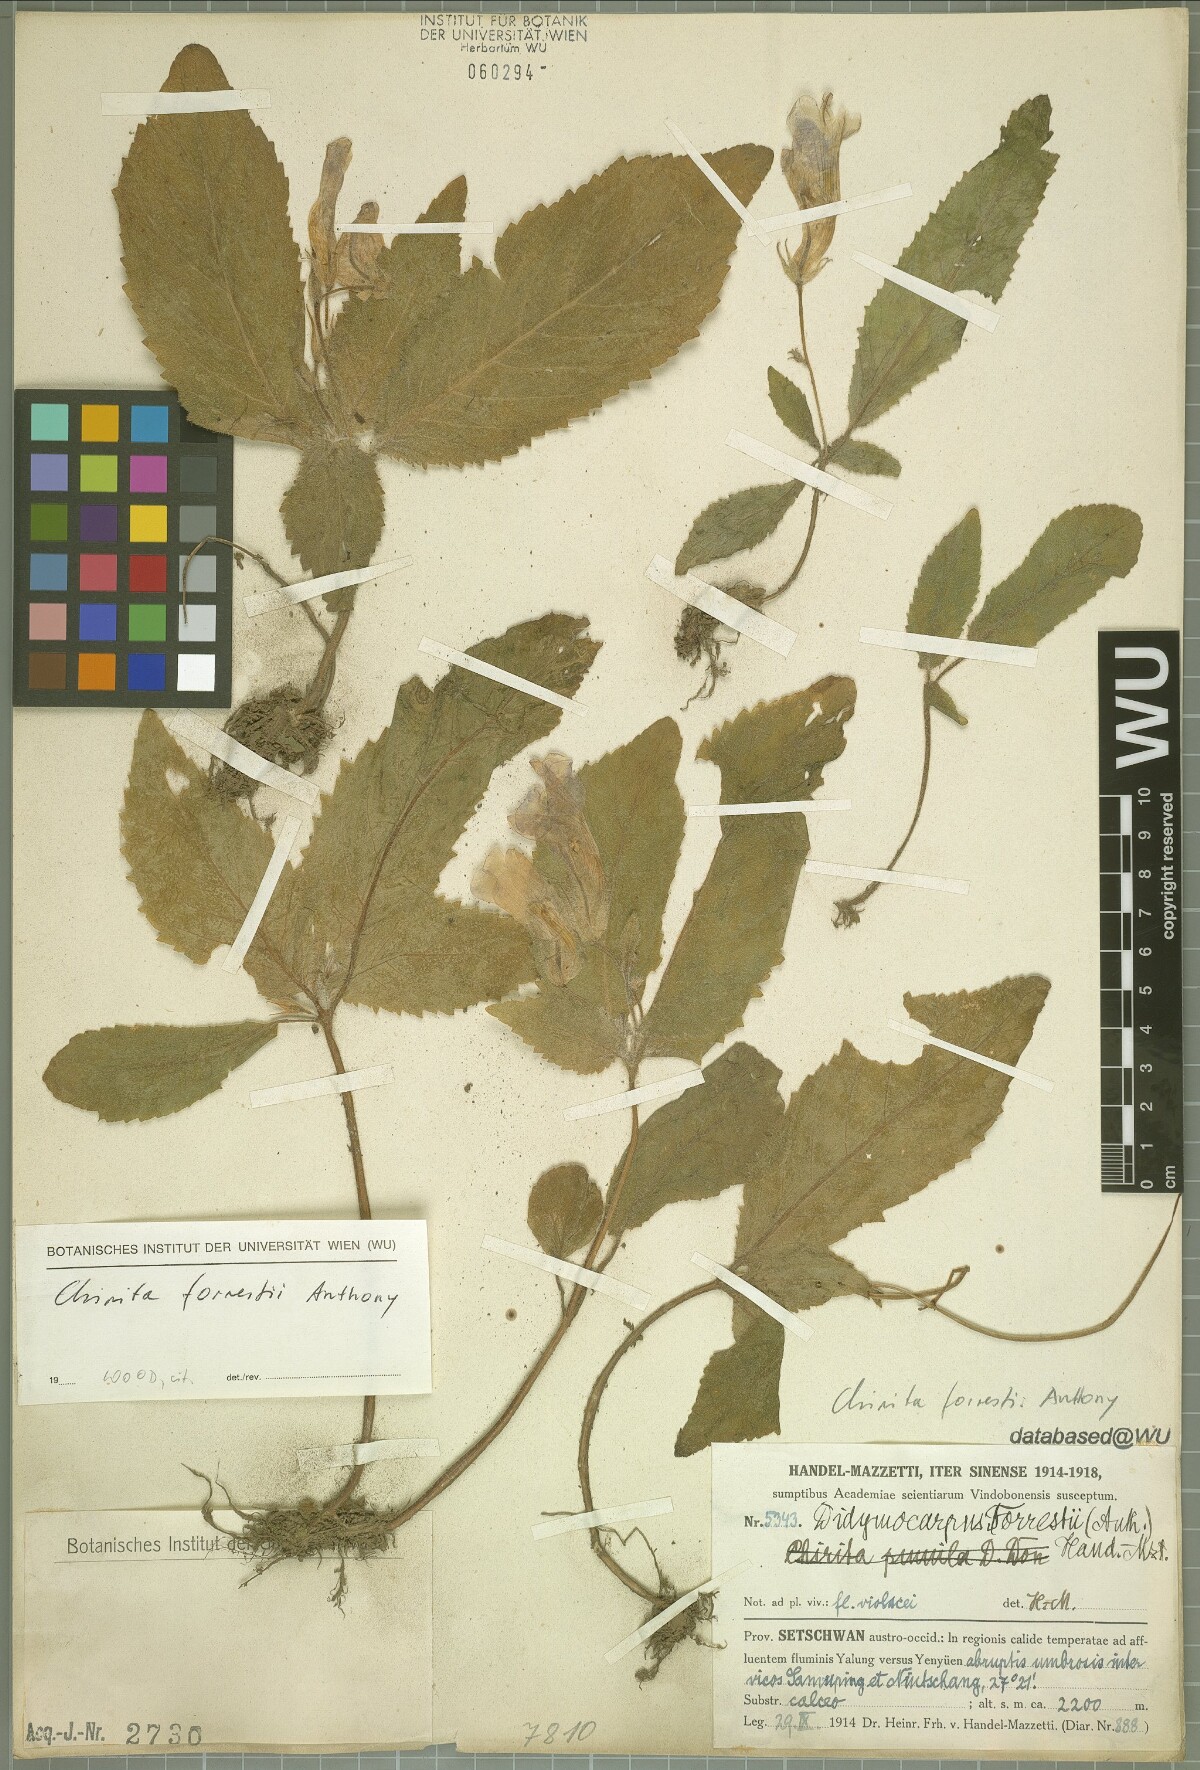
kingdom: Plantae
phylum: Tracheophyta
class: Magnoliopsida
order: Lamiales
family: Gesneriaceae
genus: Henckelia
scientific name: Henckelia forrestii
